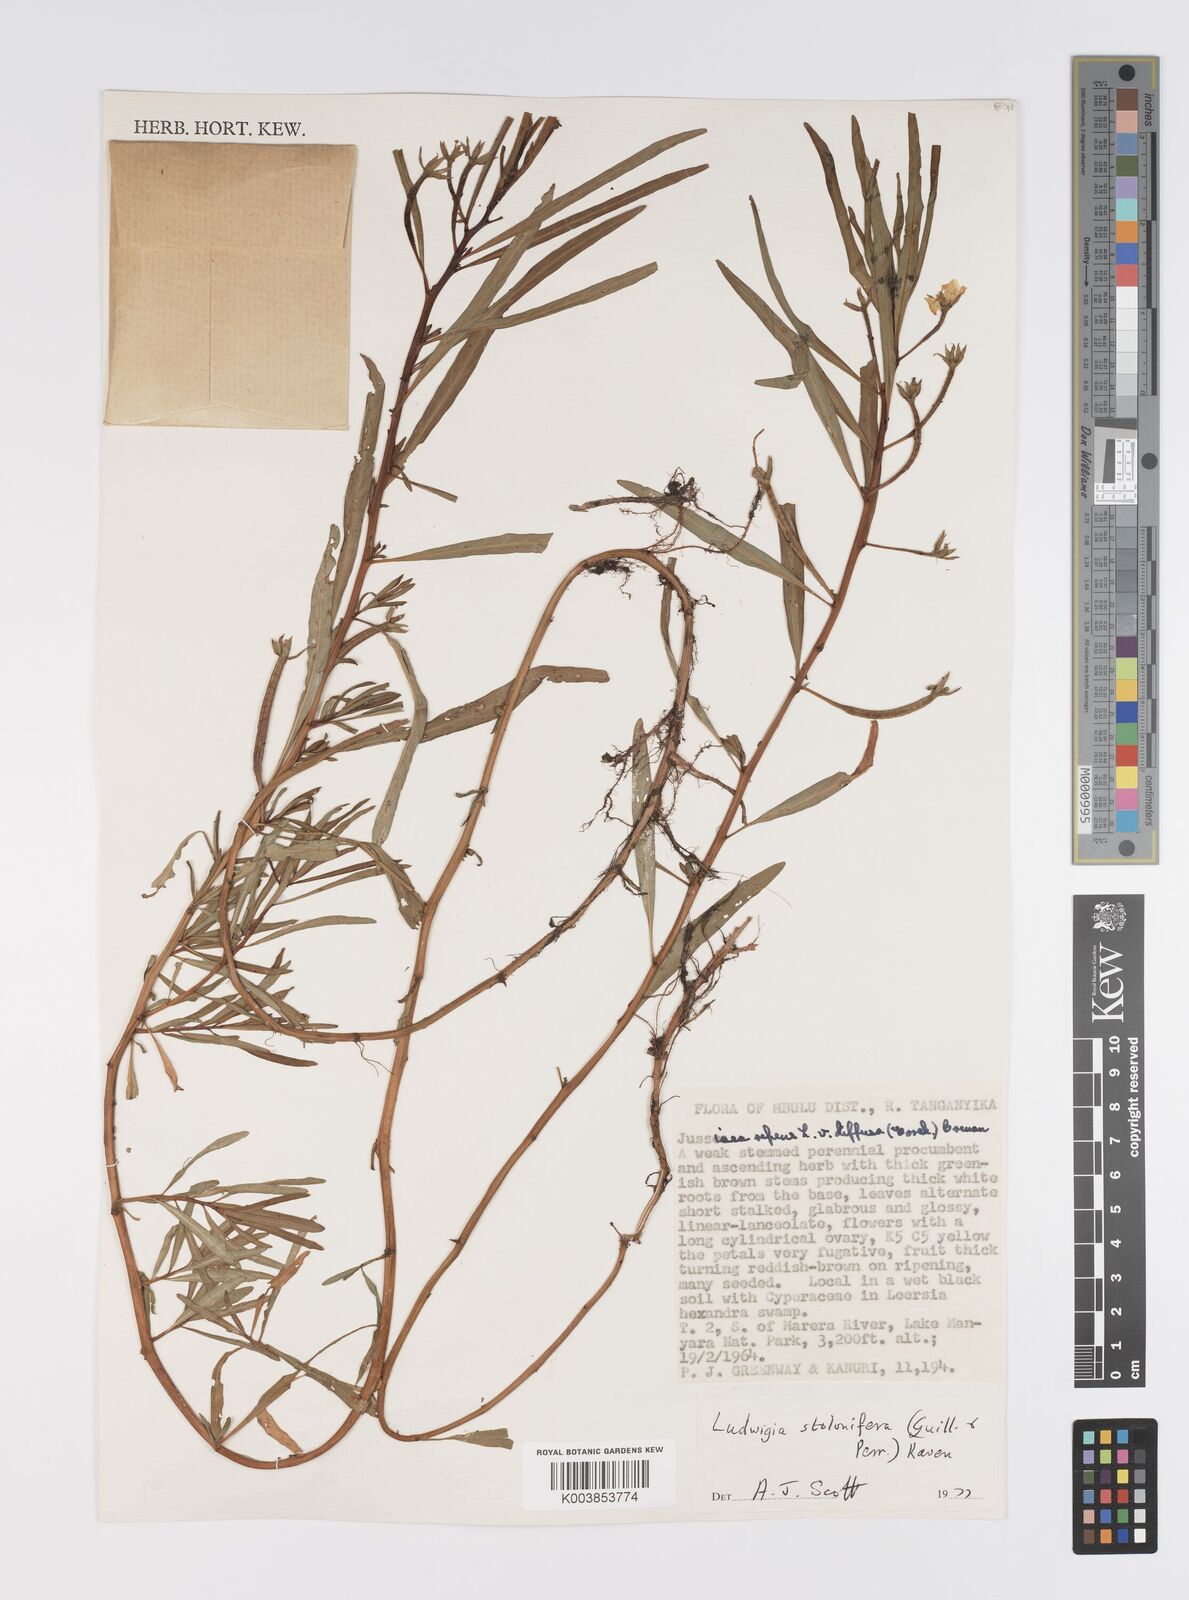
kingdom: Plantae
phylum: Tracheophyta
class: Magnoliopsida
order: Myrtales
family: Onagraceae
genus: Ludwigia
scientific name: Ludwigia repens
